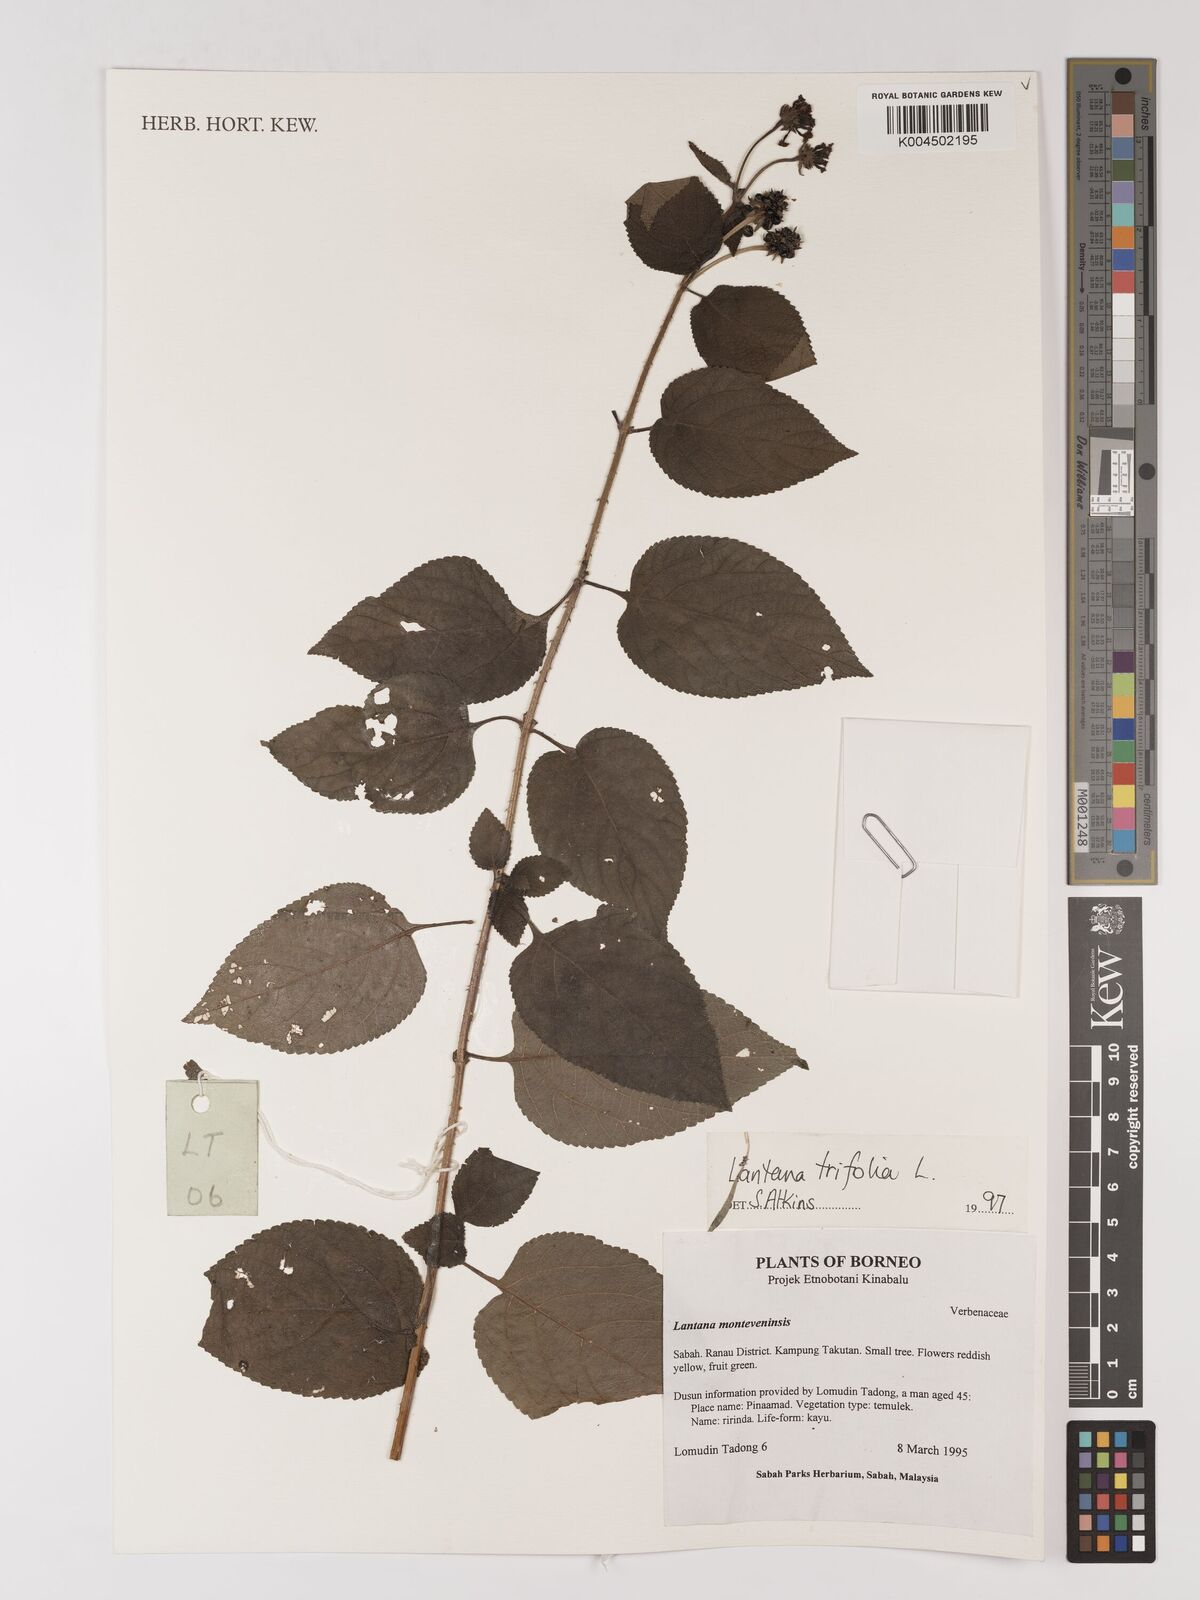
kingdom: Plantae
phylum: Tracheophyta
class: Magnoliopsida
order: Lamiales
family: Verbenaceae
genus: Lantana
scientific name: Lantana trifolia
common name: Sweet-sage
